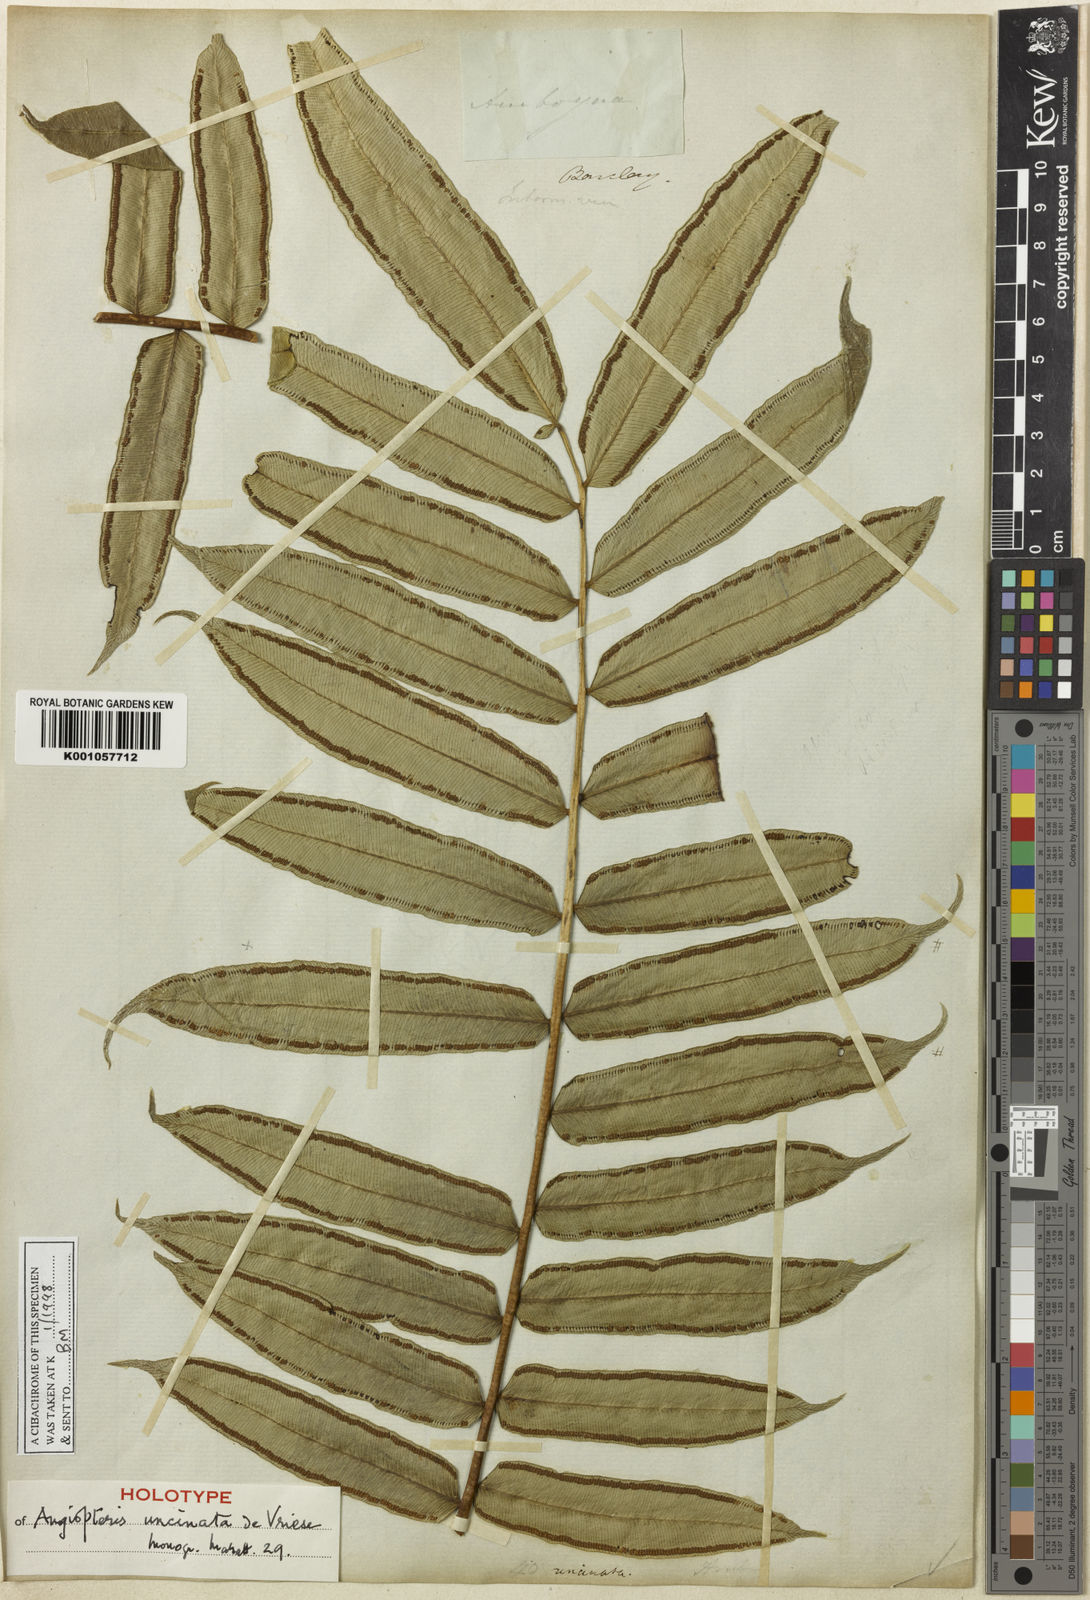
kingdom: Plantae
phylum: Tracheophyta
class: Polypodiopsida
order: Marattiales
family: Marattiaceae
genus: Angiopteris
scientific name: Angiopteris javanica
